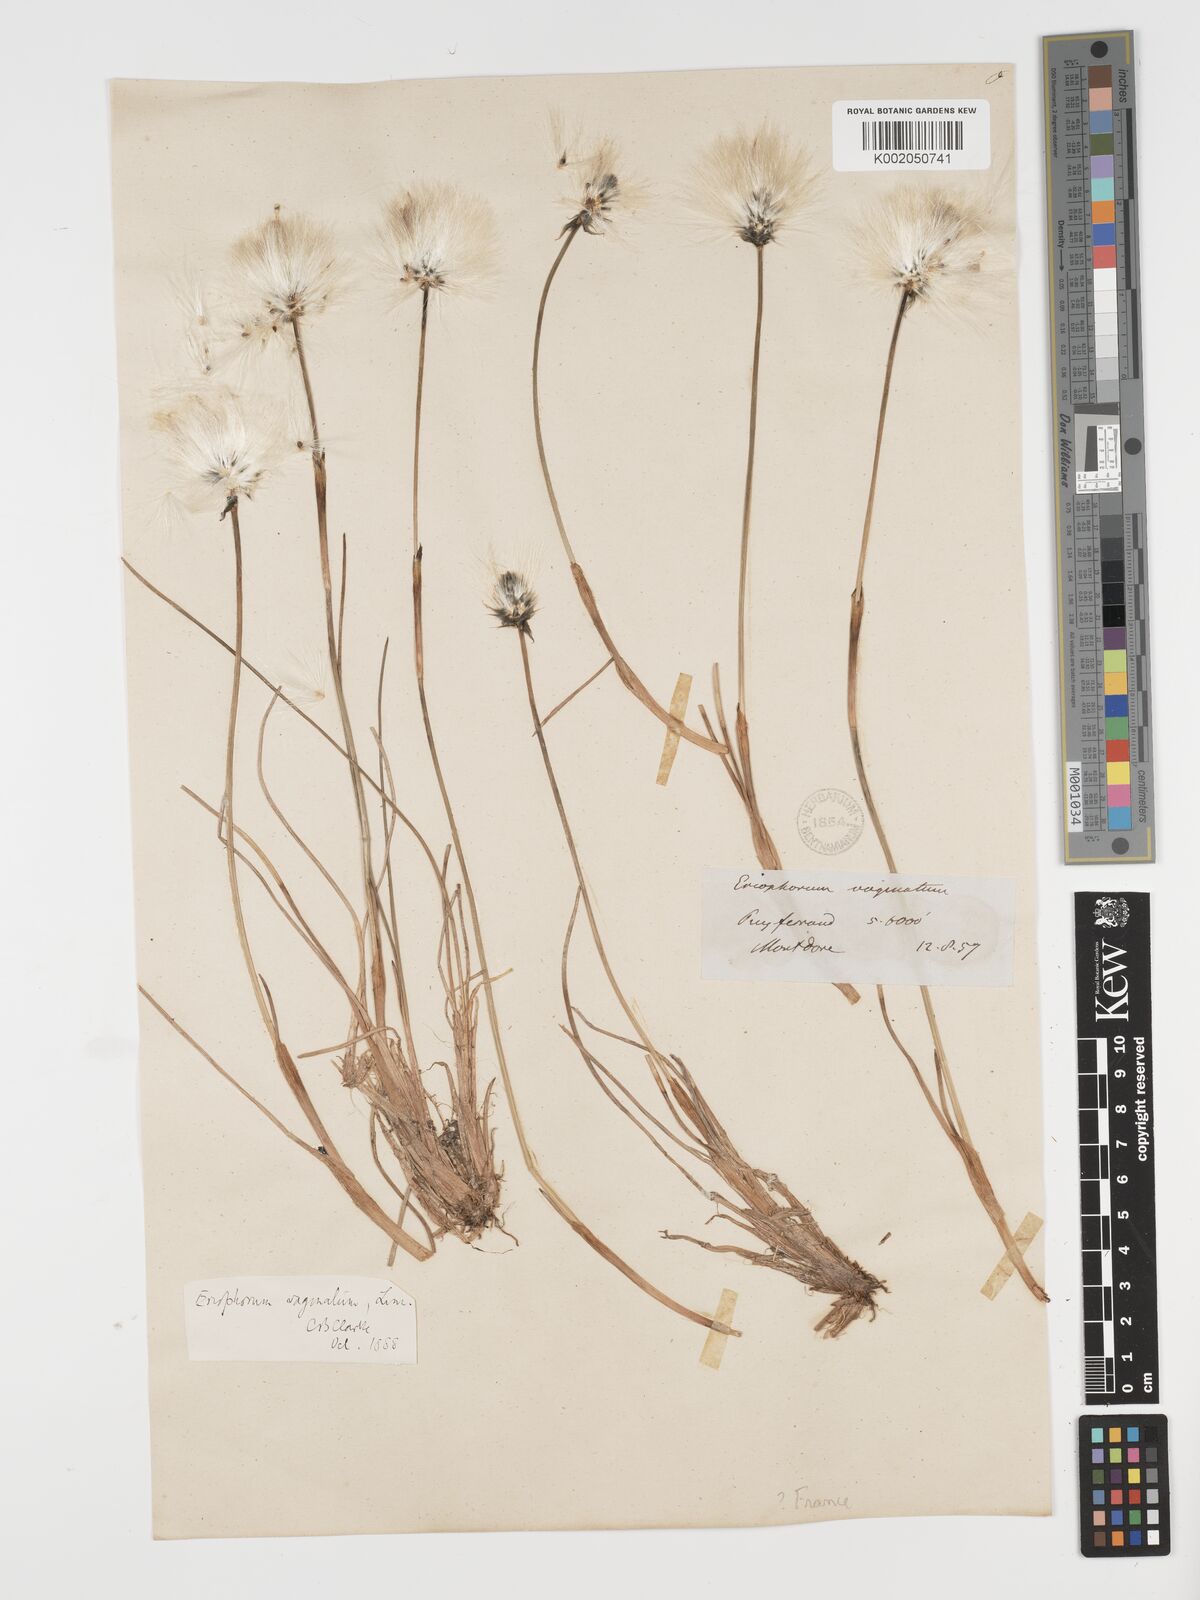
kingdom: Plantae
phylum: Tracheophyta
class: Liliopsida
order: Poales
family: Cyperaceae
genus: Eriophorum
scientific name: Eriophorum vaginatum
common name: Hare's-tail cottongrass
